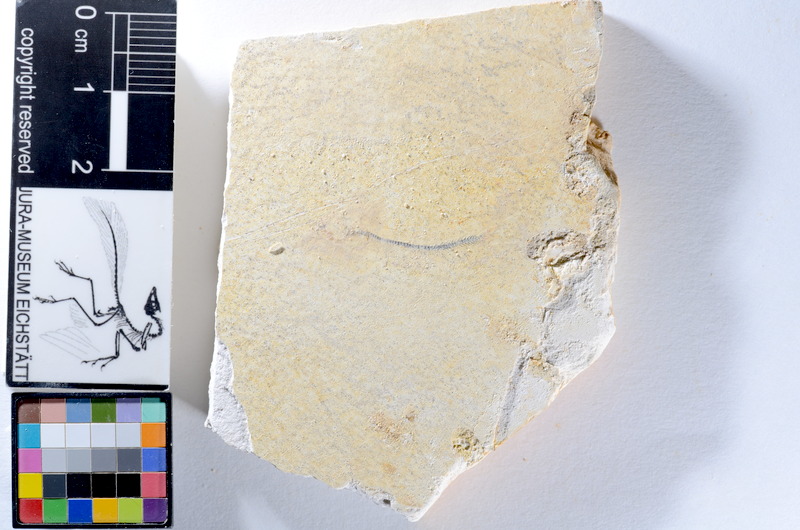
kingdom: Animalia
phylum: Chordata
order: Salmoniformes
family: Orthogonikleithridae
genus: Orthogonikleithrus
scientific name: Orthogonikleithrus hoelli
